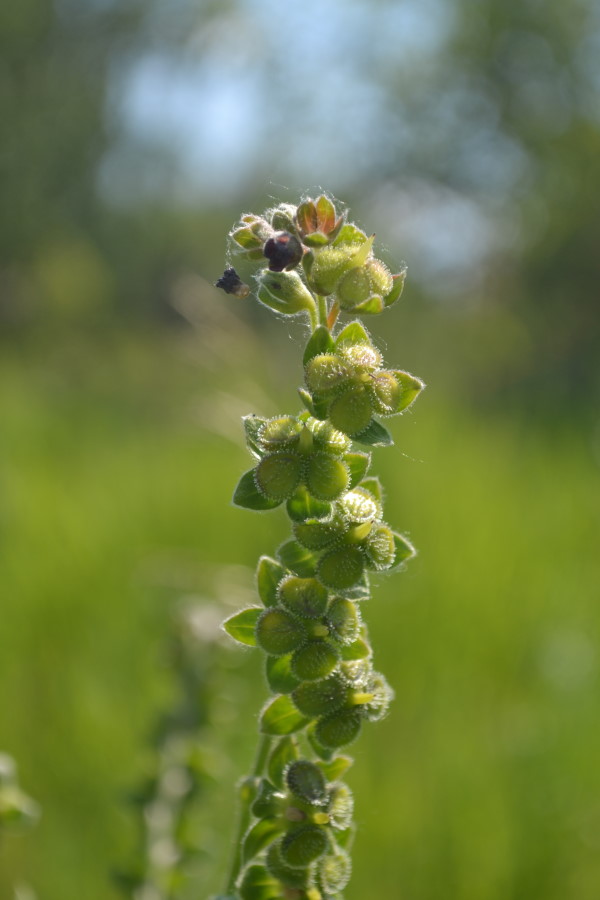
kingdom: Plantae
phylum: Tracheophyta
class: Magnoliopsida
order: Boraginales
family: Boraginaceae
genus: Cynoglossum
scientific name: Cynoglossum officinale
